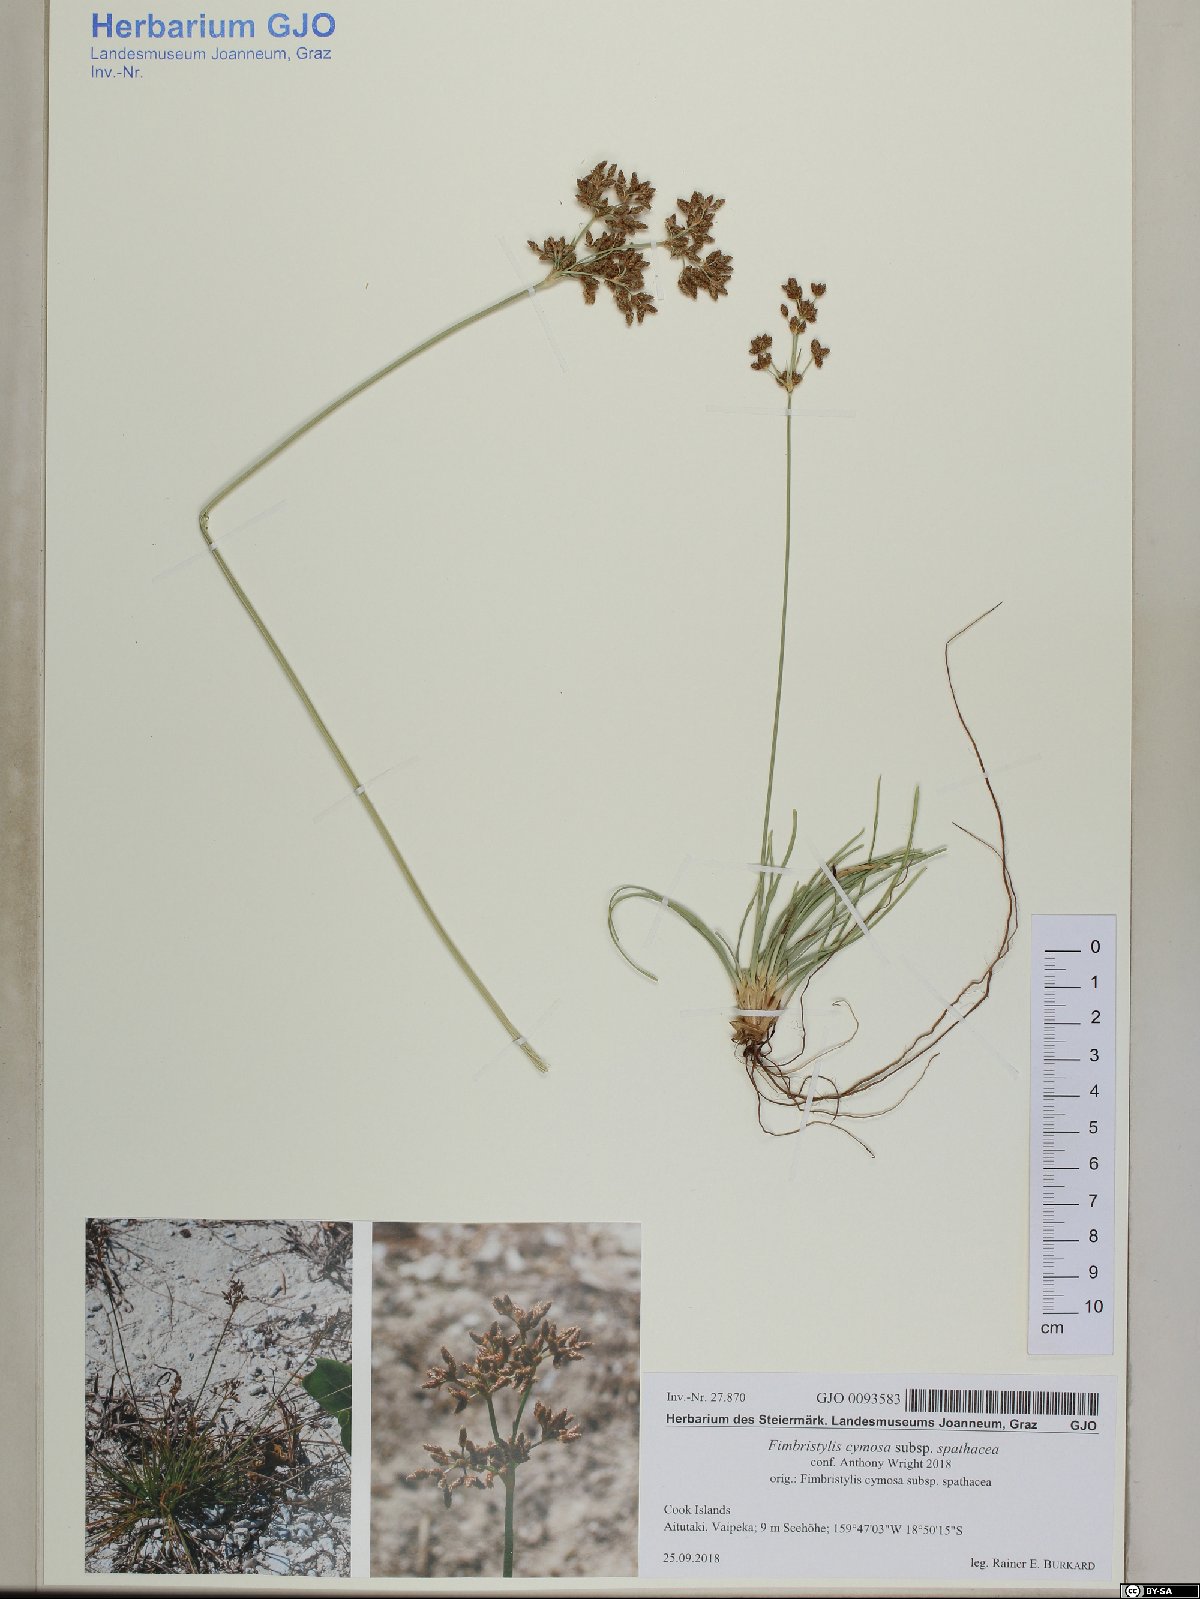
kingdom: Plantae
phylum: Tracheophyta
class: Liliopsida
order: Poales
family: Cyperaceae
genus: Fimbristylis
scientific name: Fimbristylis cymosa
